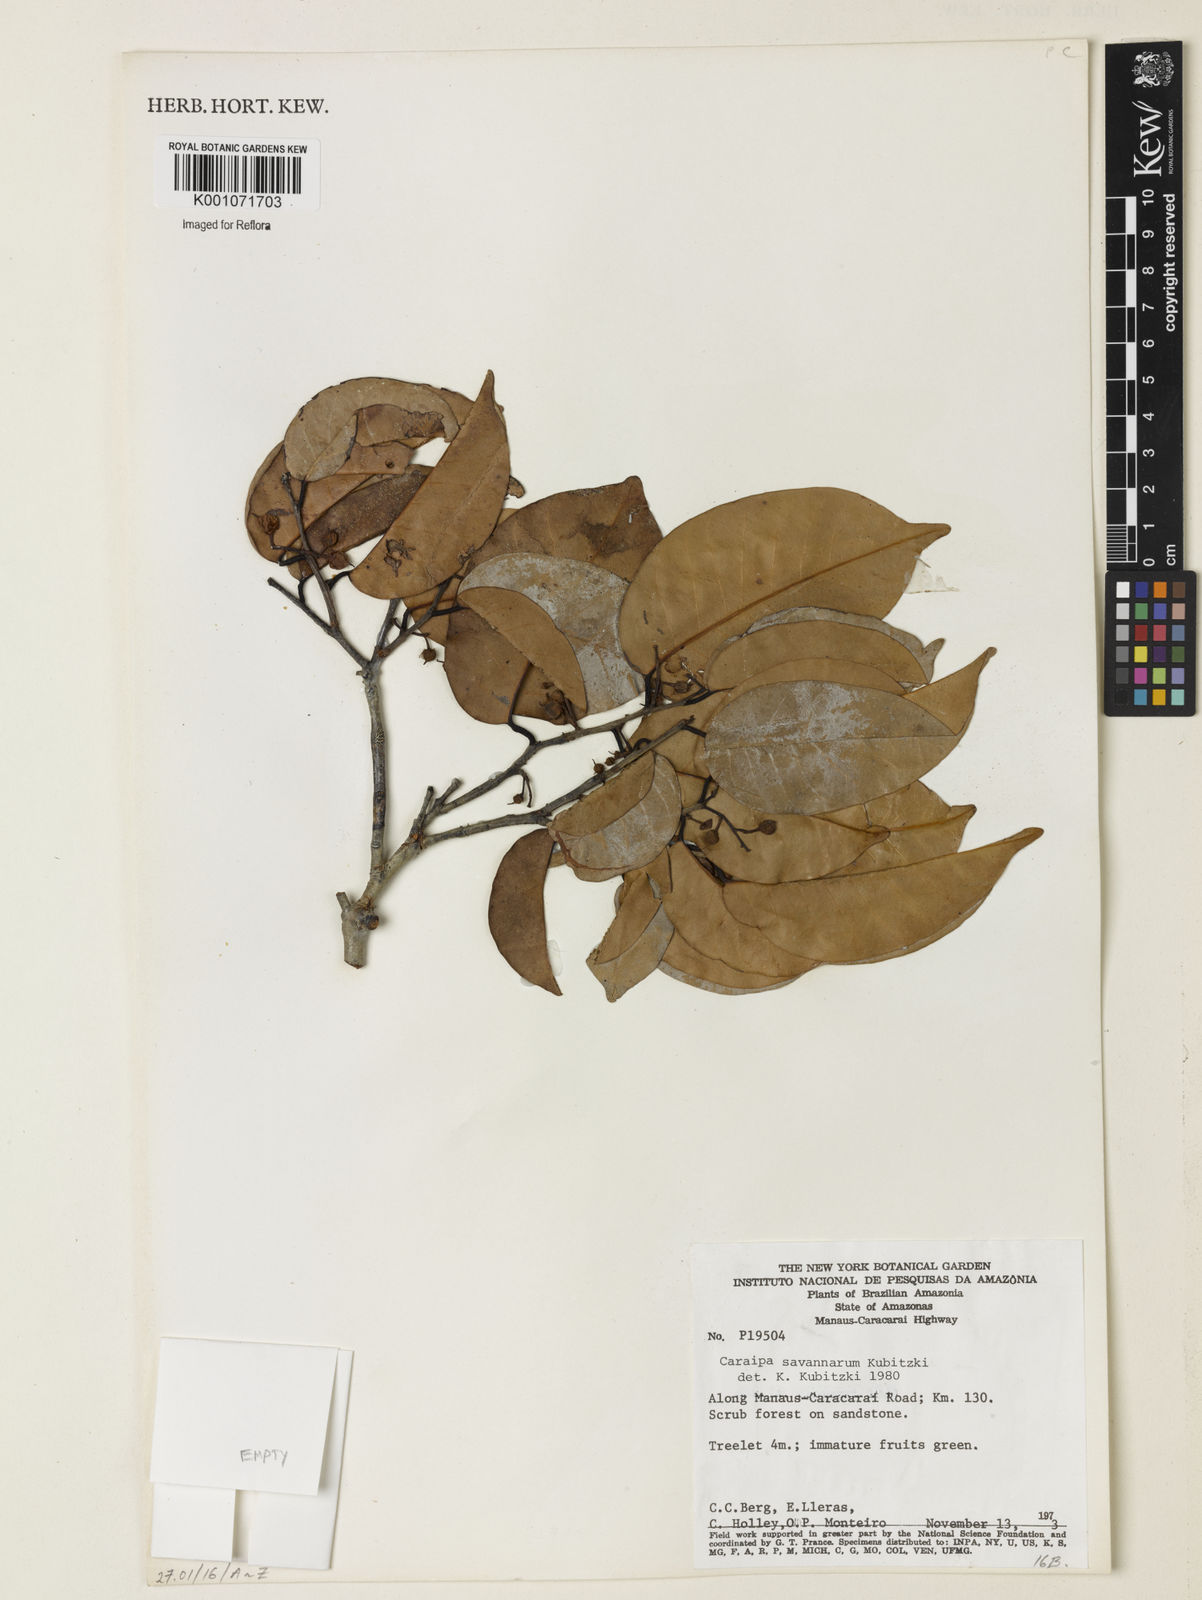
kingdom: Plantae
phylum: Tracheophyta
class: Magnoliopsida
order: Malpighiales
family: Calophyllaceae
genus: Caraipa
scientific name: Caraipa savannarum
